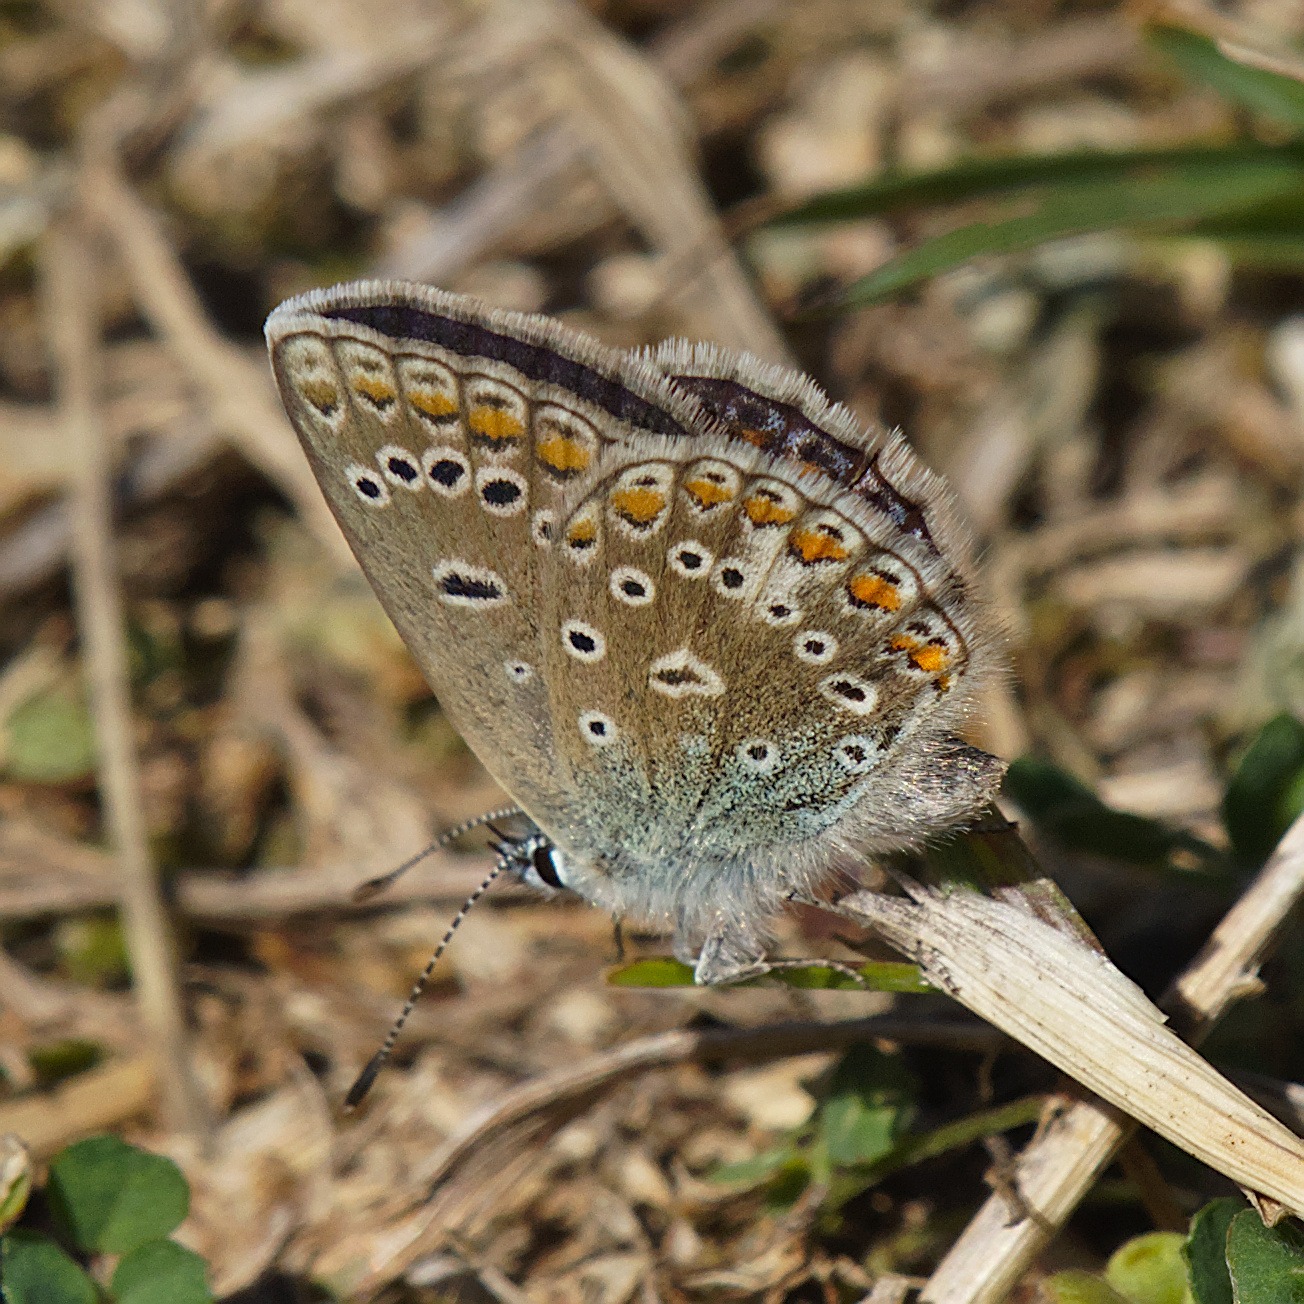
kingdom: Animalia
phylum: Arthropoda
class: Insecta
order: Lepidoptera
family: Lycaenidae
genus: Polyommatus
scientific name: Polyommatus icarus
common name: Almindelig blåfugl
